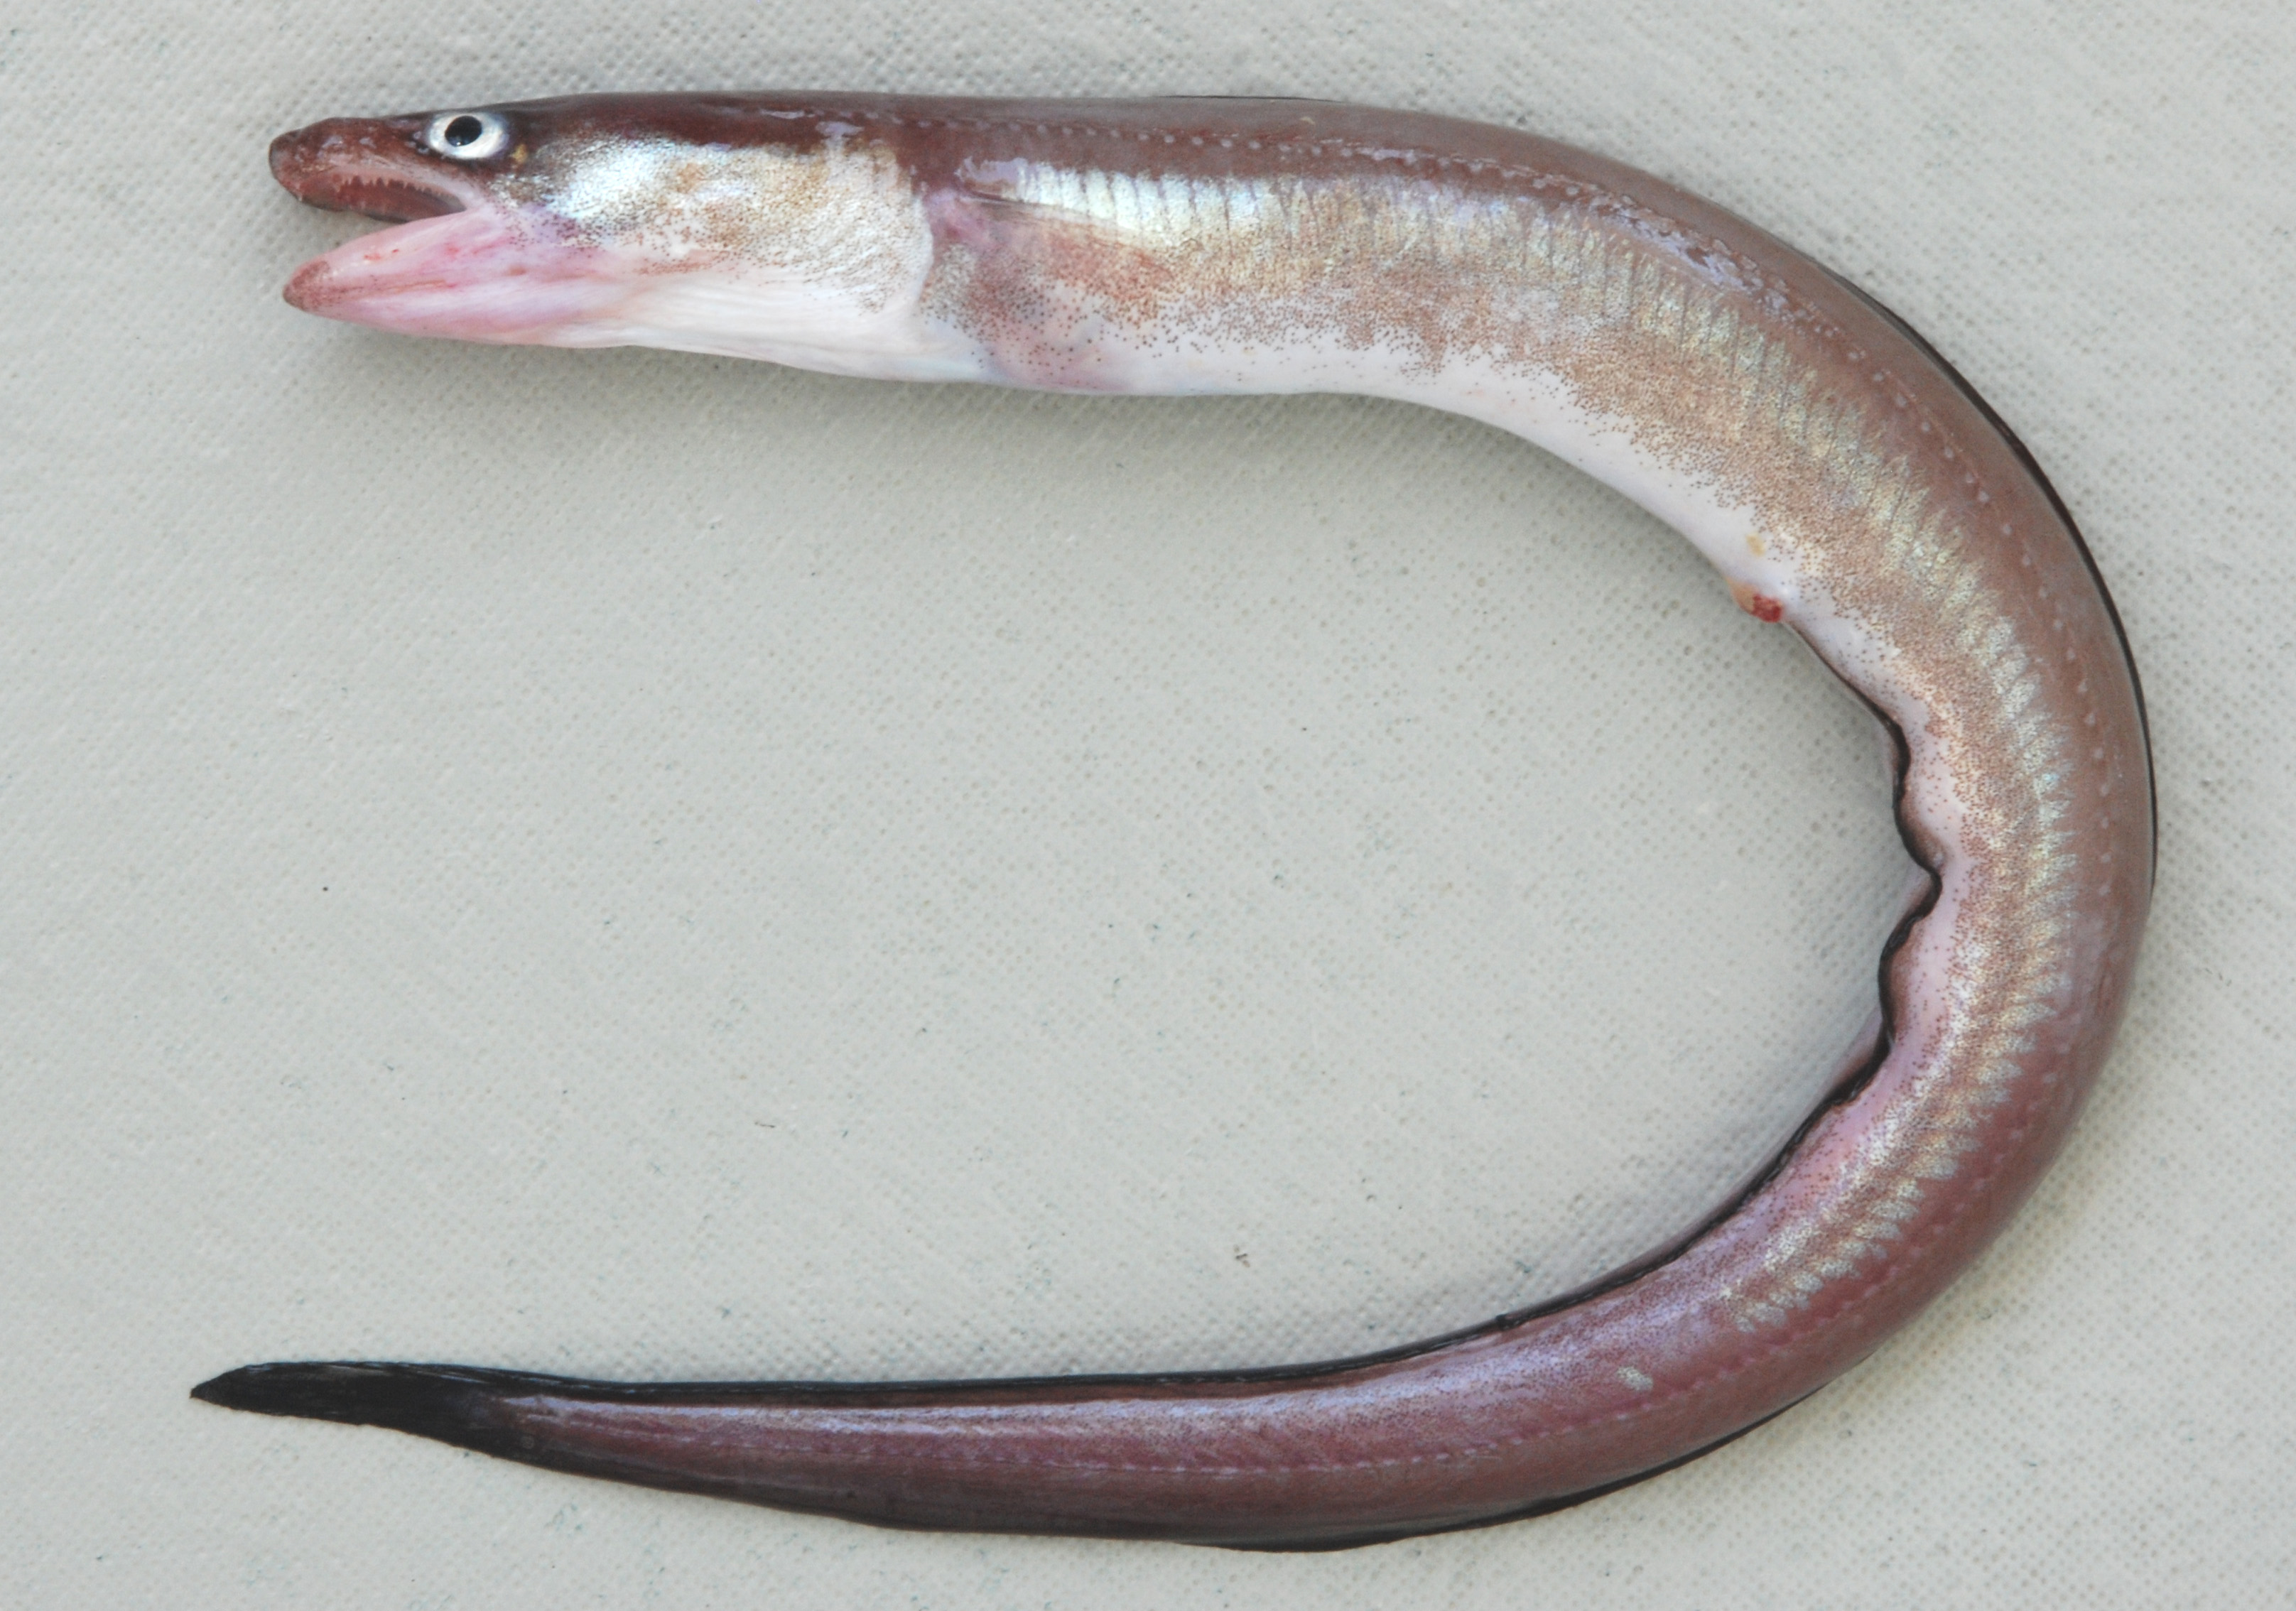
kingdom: Animalia
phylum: Chordata
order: Anguilliformes
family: Congridae
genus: Uroconger
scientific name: Uroconger lepturus
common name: Slender conger
